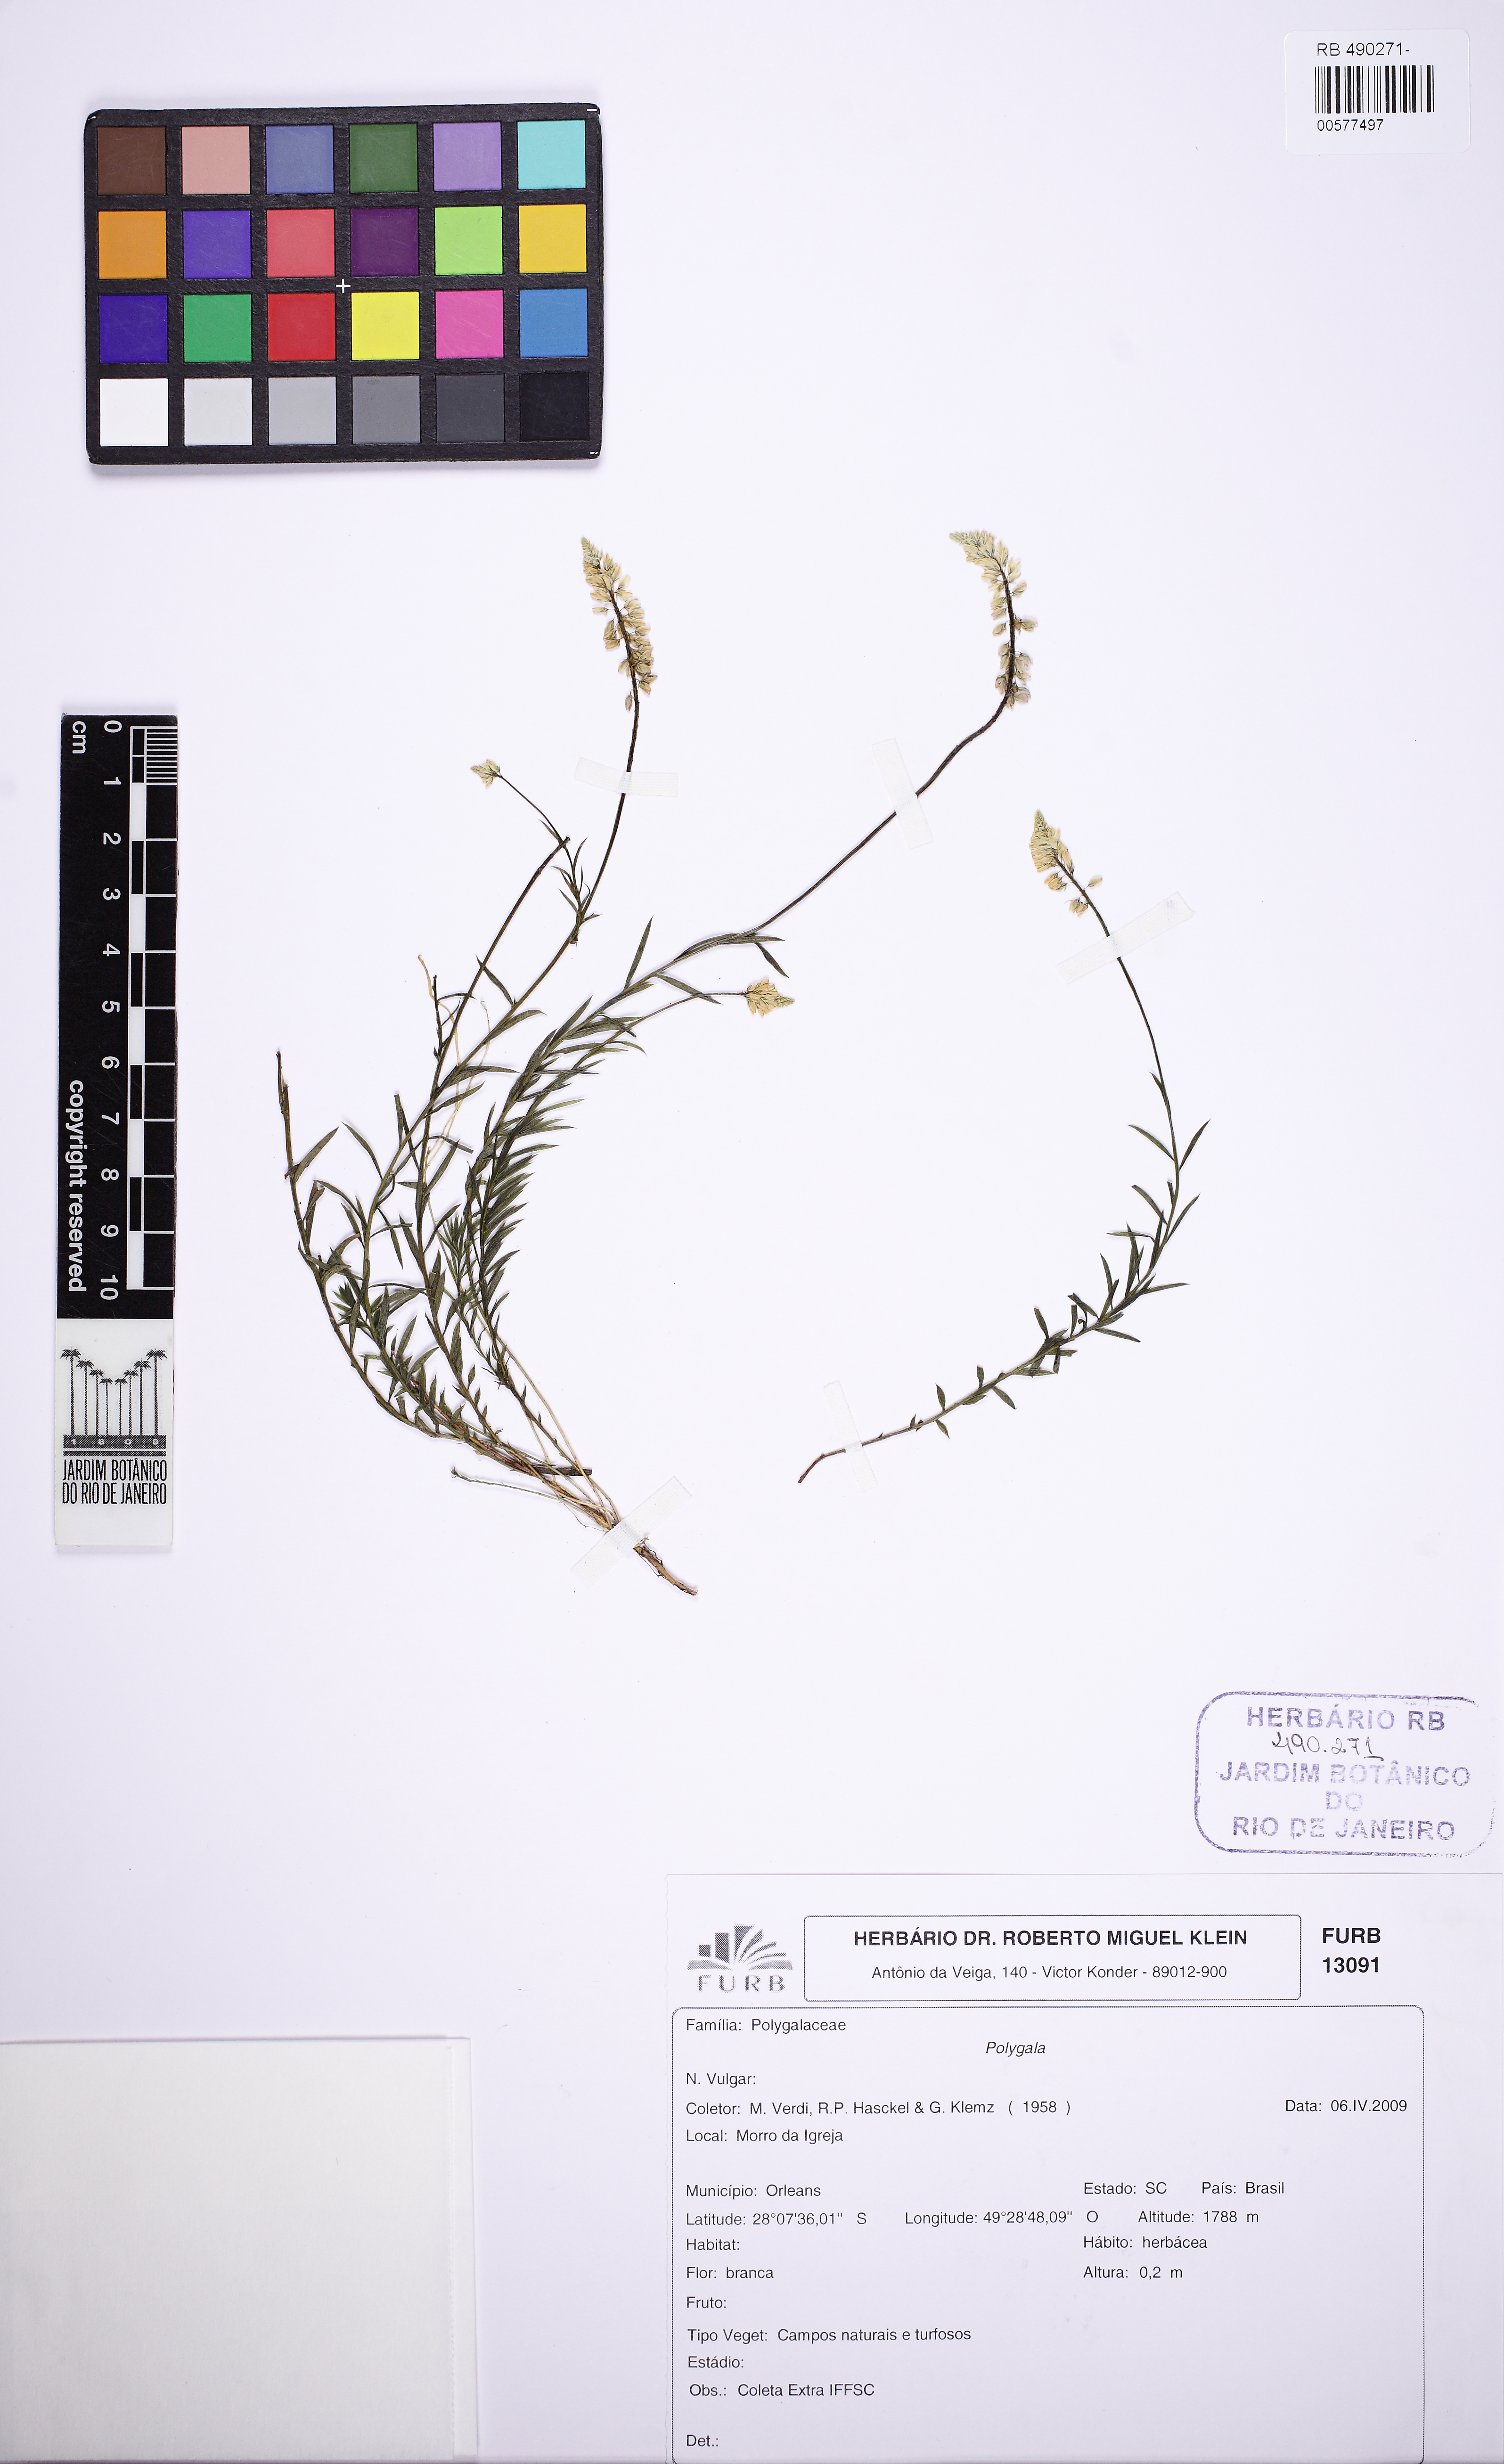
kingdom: Plantae
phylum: Tracheophyta
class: Magnoliopsida
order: Fabales
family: Polygalaceae
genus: Polygala
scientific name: Polygala
